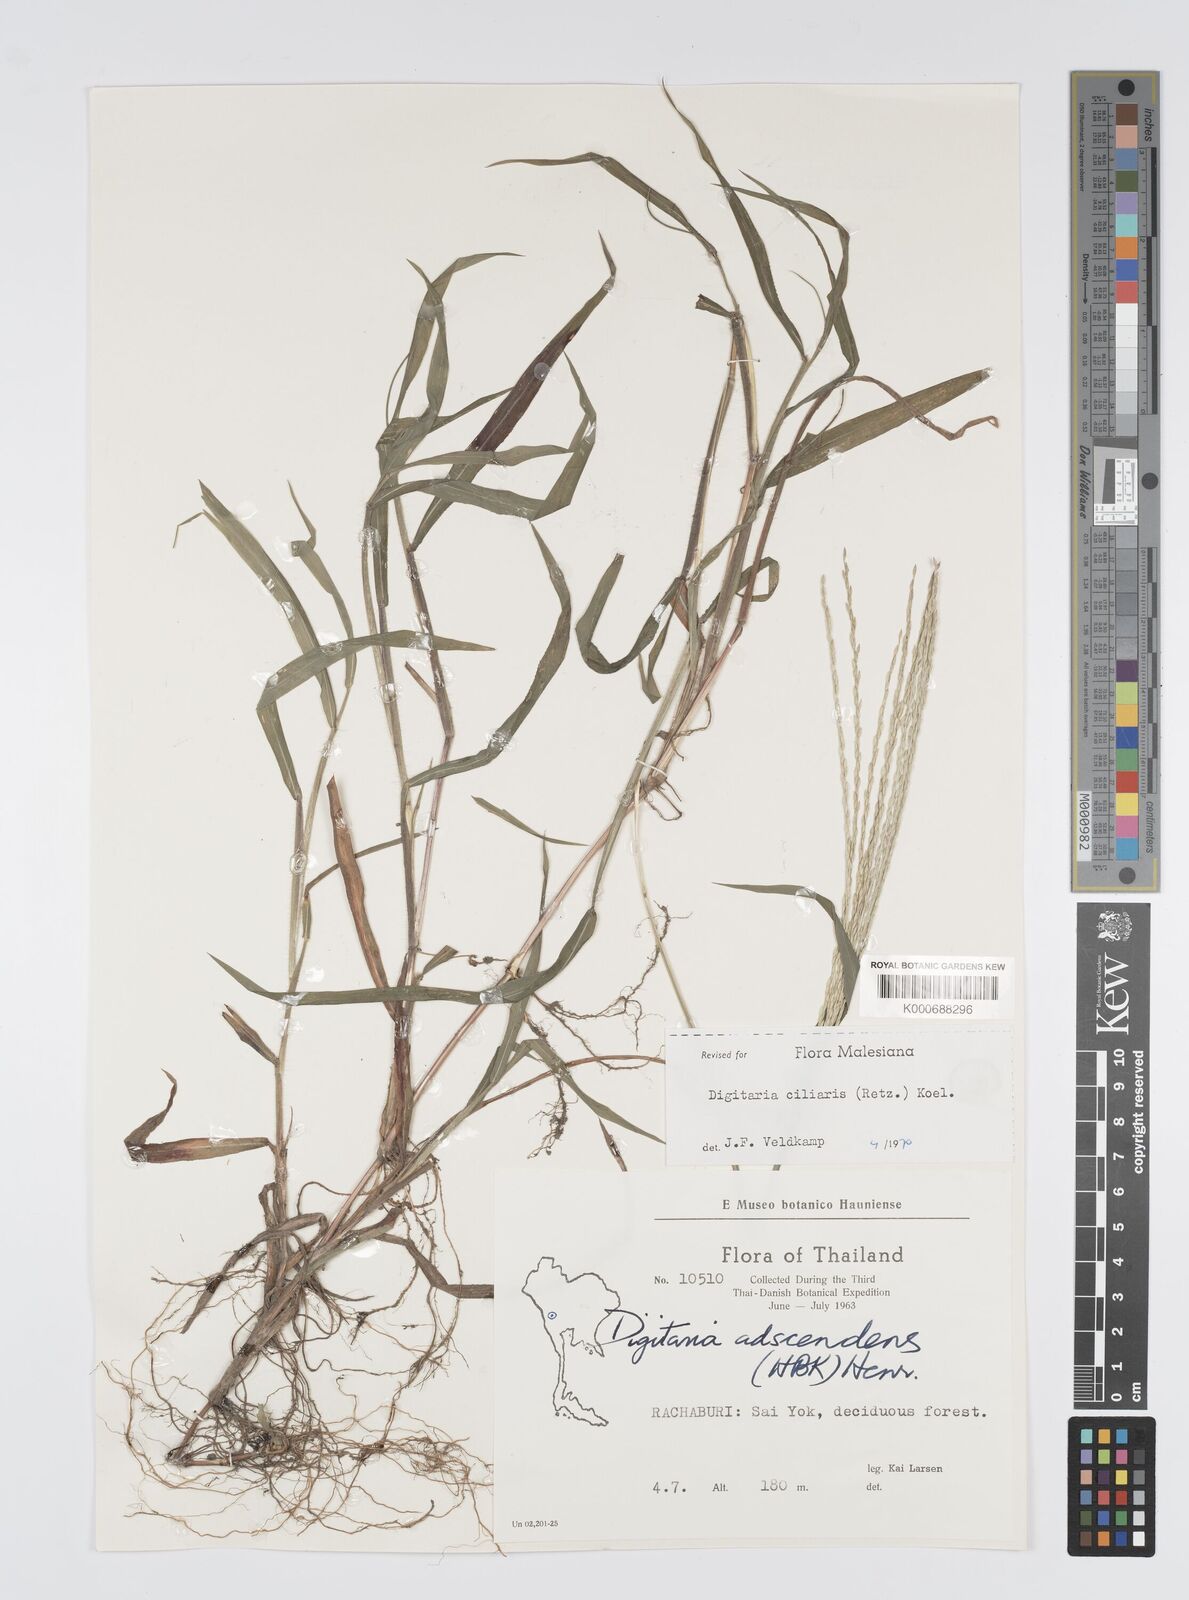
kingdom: Plantae
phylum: Tracheophyta
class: Liliopsida
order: Poales
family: Poaceae
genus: Digitaria
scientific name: Digitaria ciliaris
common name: Tropical finger-grass
